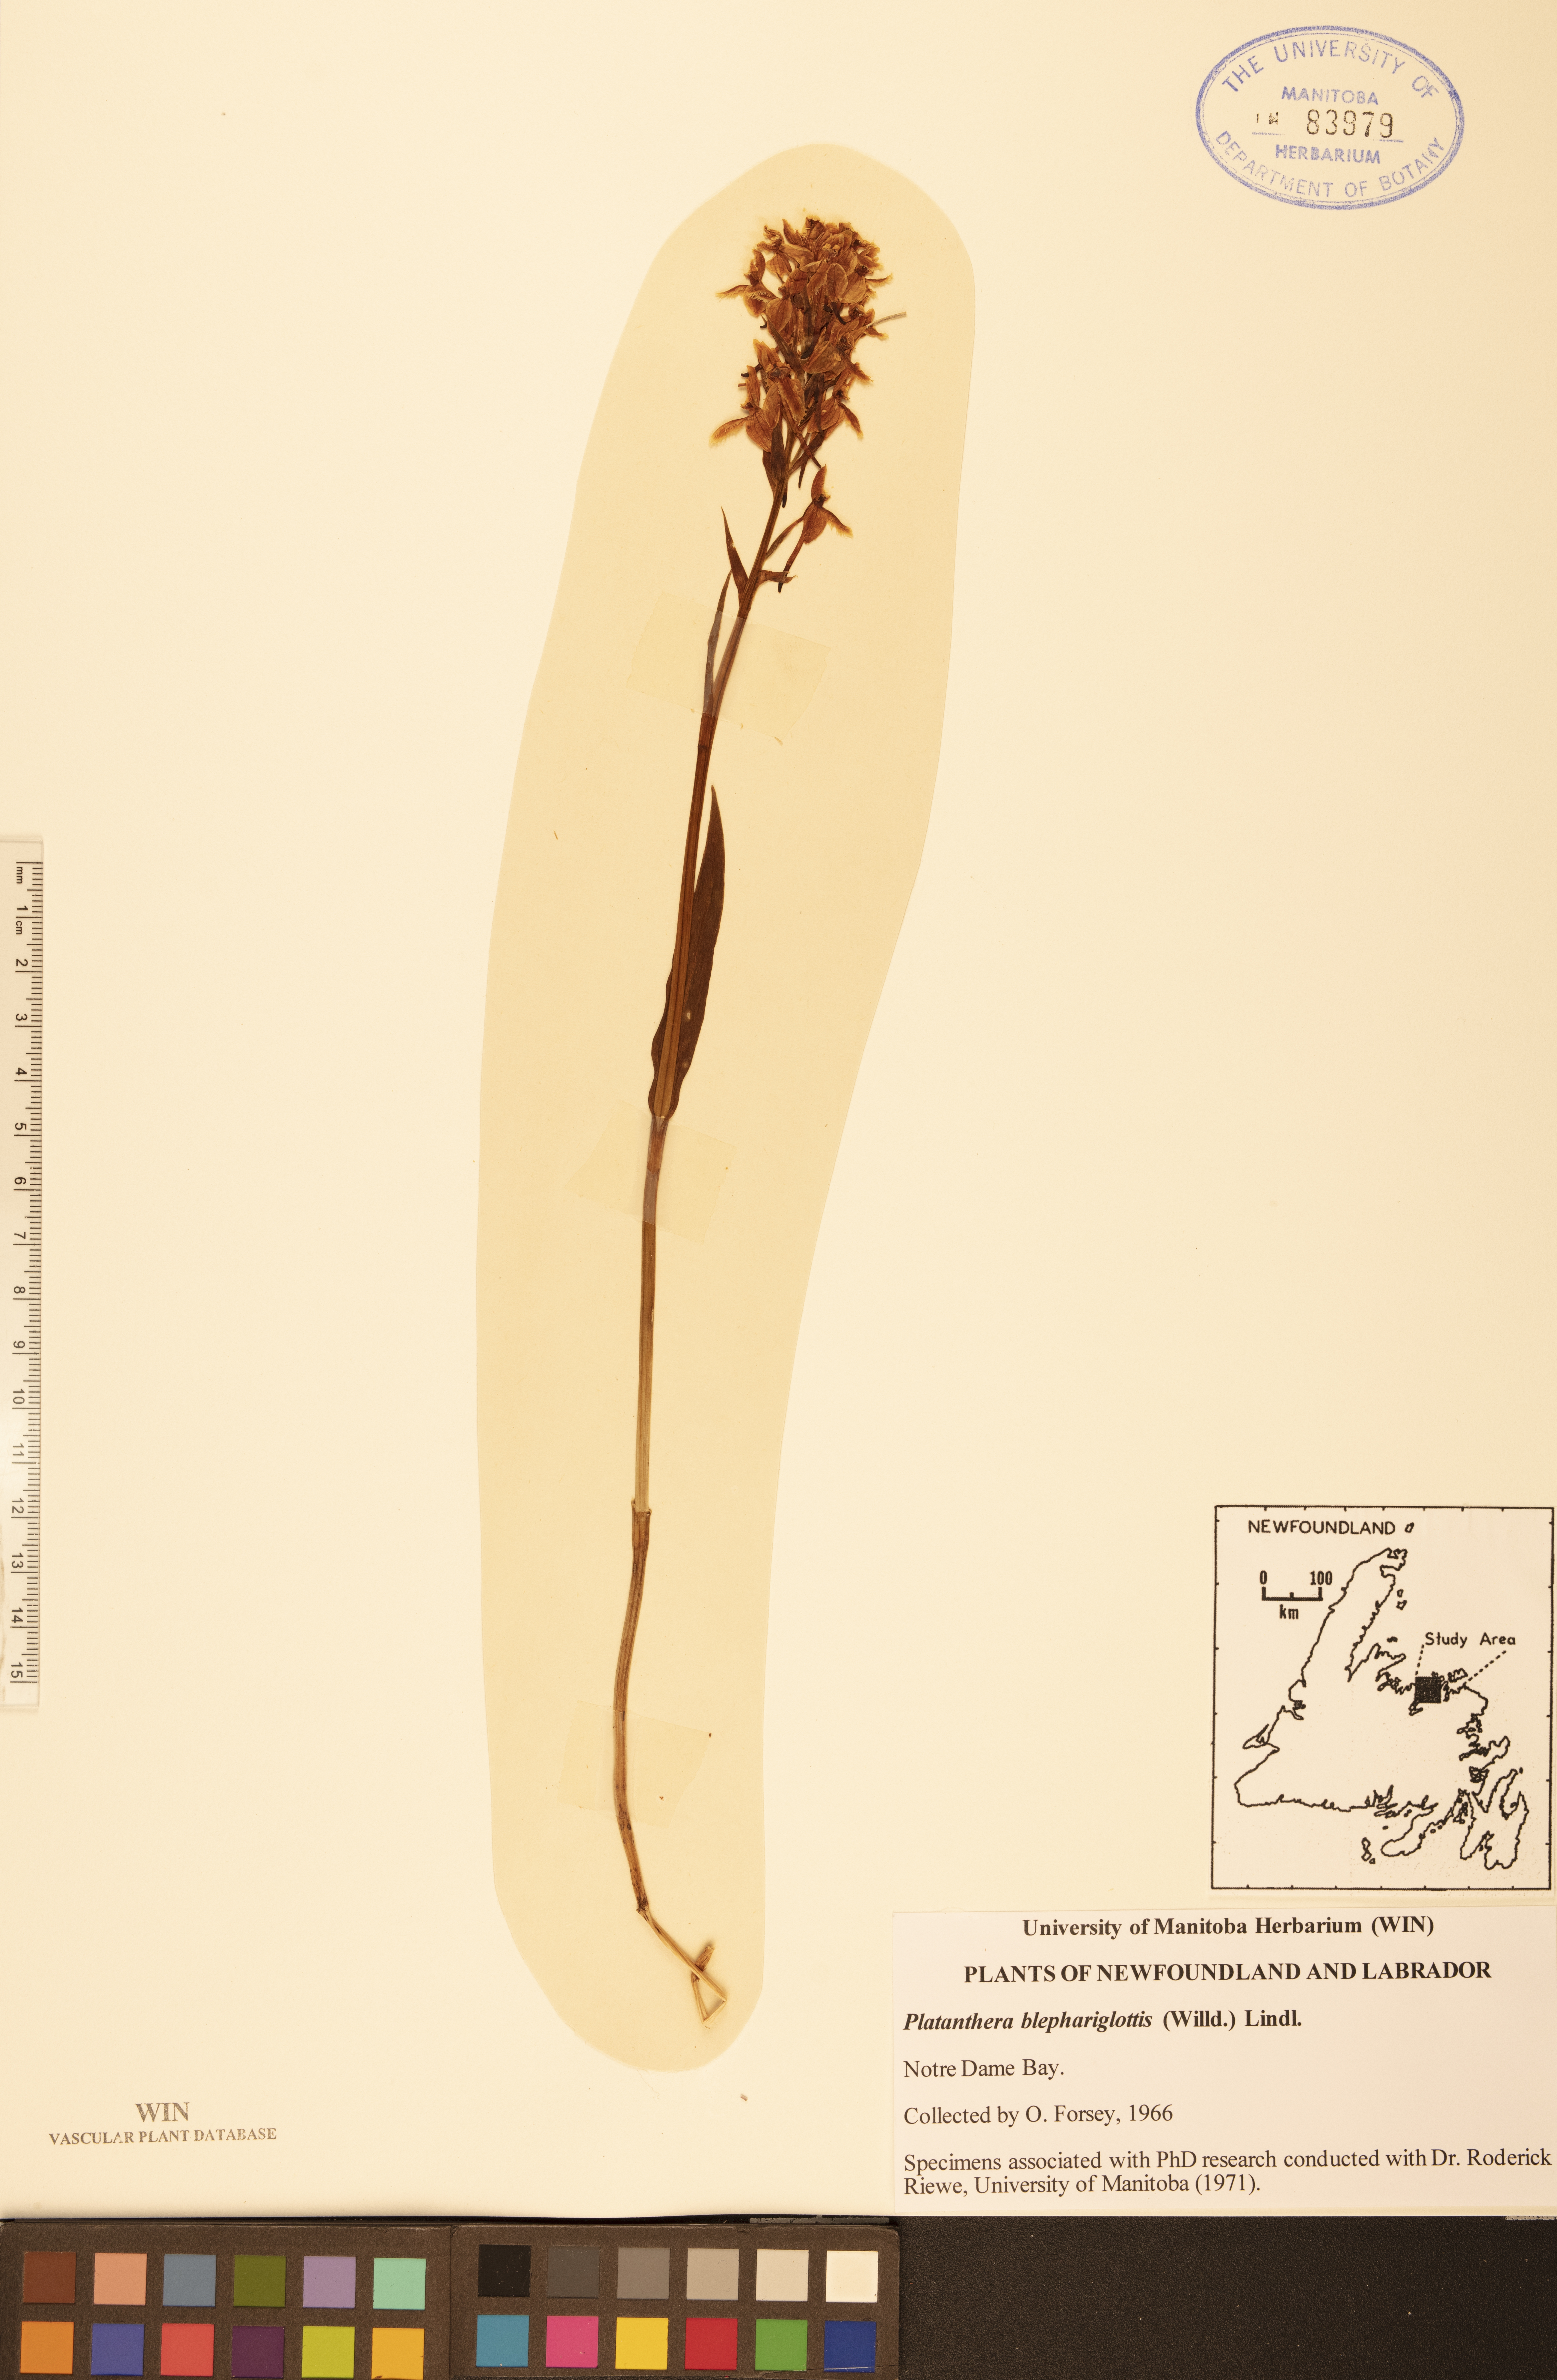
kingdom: Plantae
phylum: Tracheophyta
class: Liliopsida
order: Asparagales
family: Orchidaceae
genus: Platanthera
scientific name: Platanthera blephariglottis
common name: White fringed orchid
